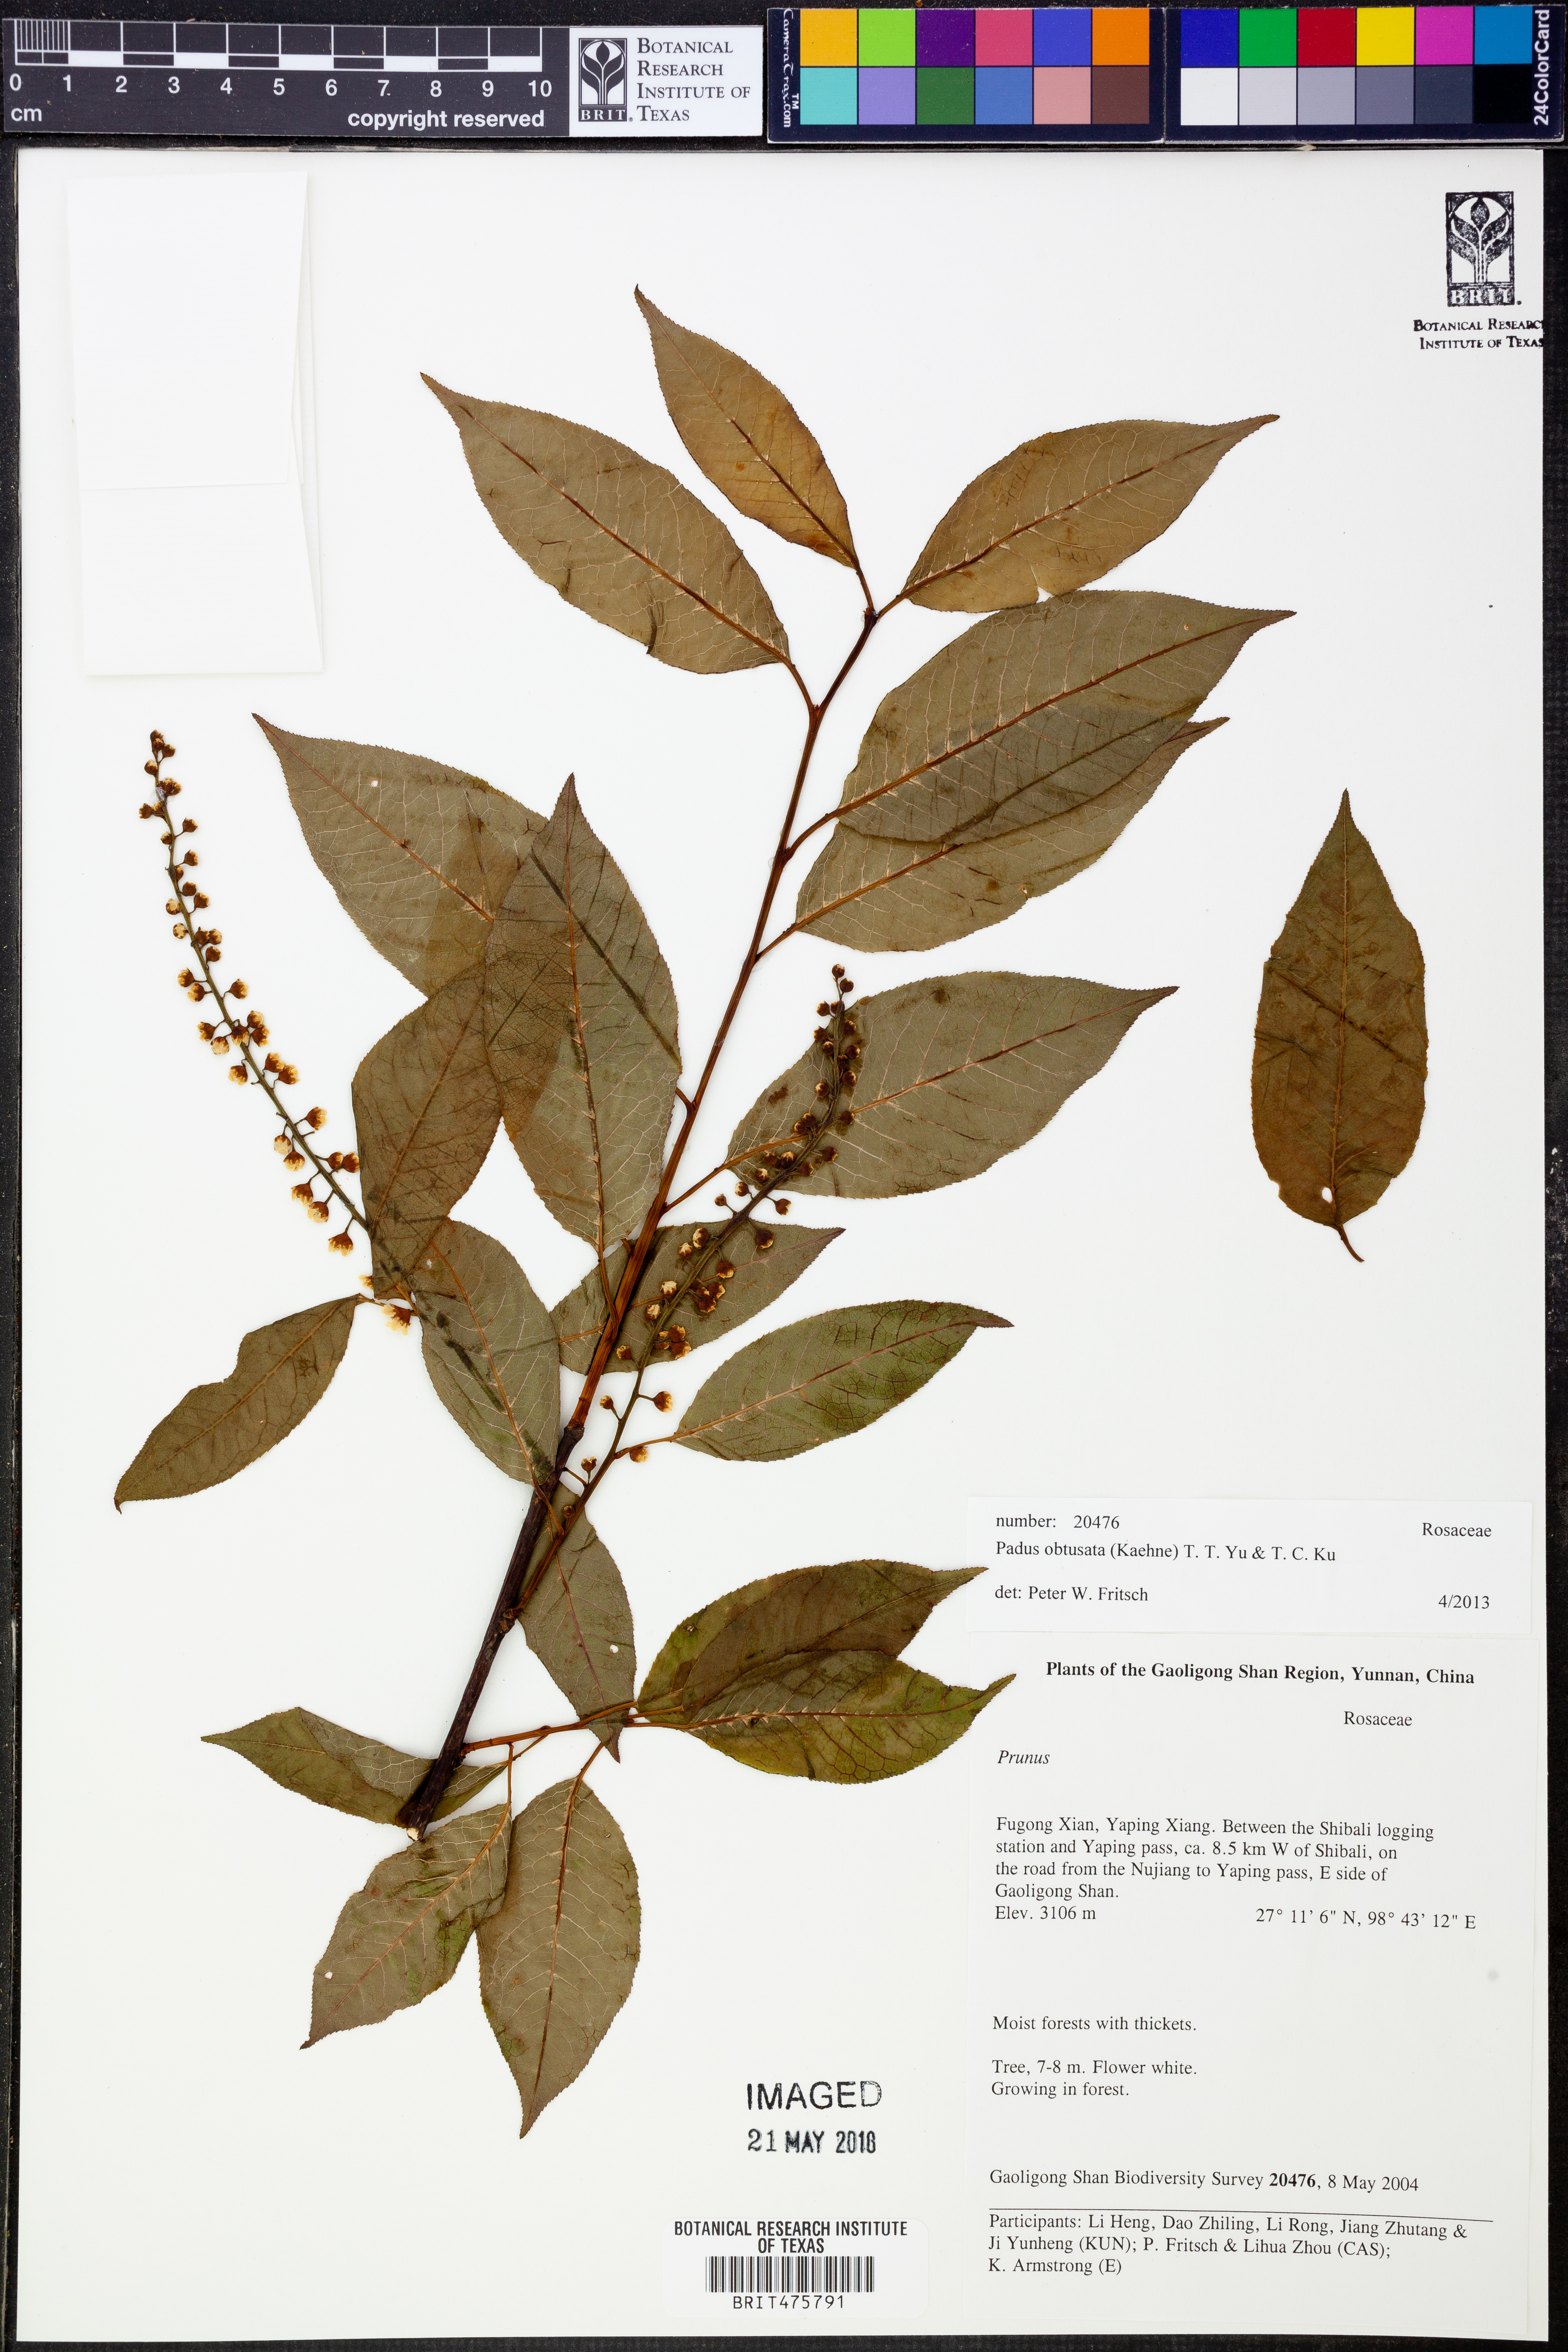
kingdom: Plantae
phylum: Tracheophyta
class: Magnoliopsida
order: Rosales
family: Rosaceae
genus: Prunus
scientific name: Prunus obtusata
